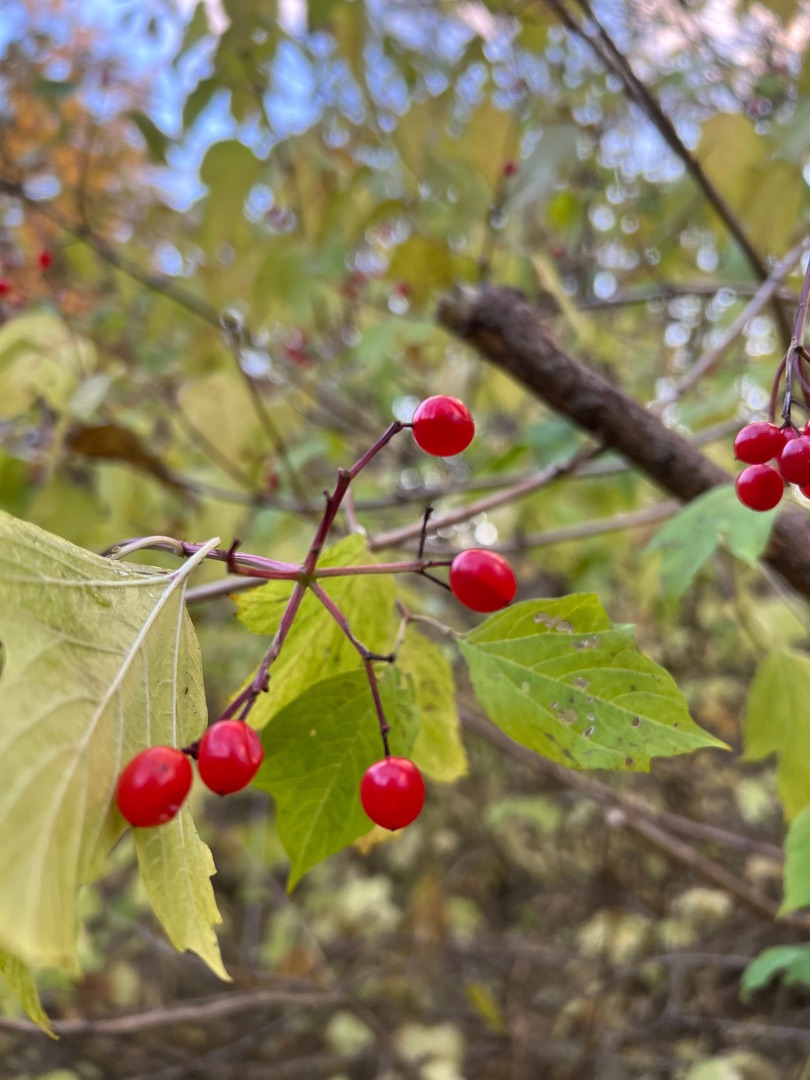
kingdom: Plantae
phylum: Tracheophyta
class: Magnoliopsida
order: Dipsacales
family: Viburnaceae
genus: Viburnum
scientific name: Viburnum opulus
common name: Kvalkved
